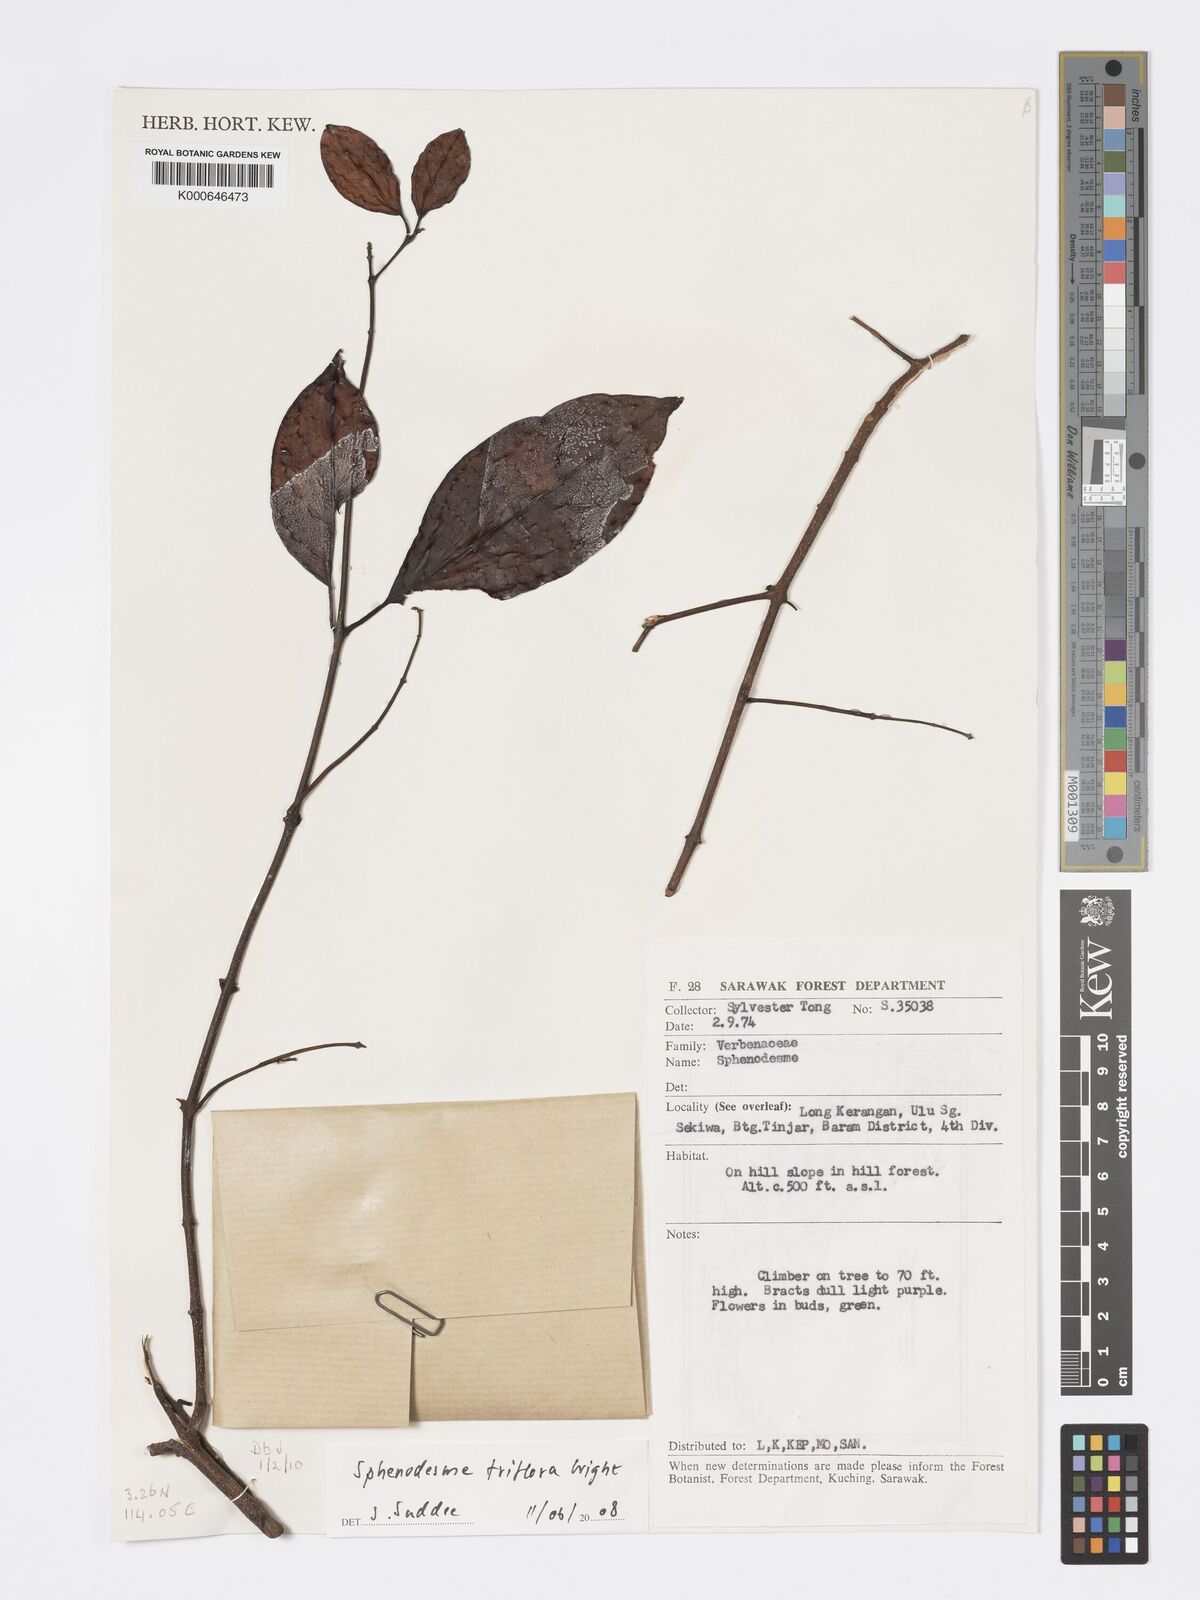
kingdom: Plantae
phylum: Tracheophyta
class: Magnoliopsida
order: Lamiales
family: Lamiaceae
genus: Sphenodesme
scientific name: Sphenodesme triflora
